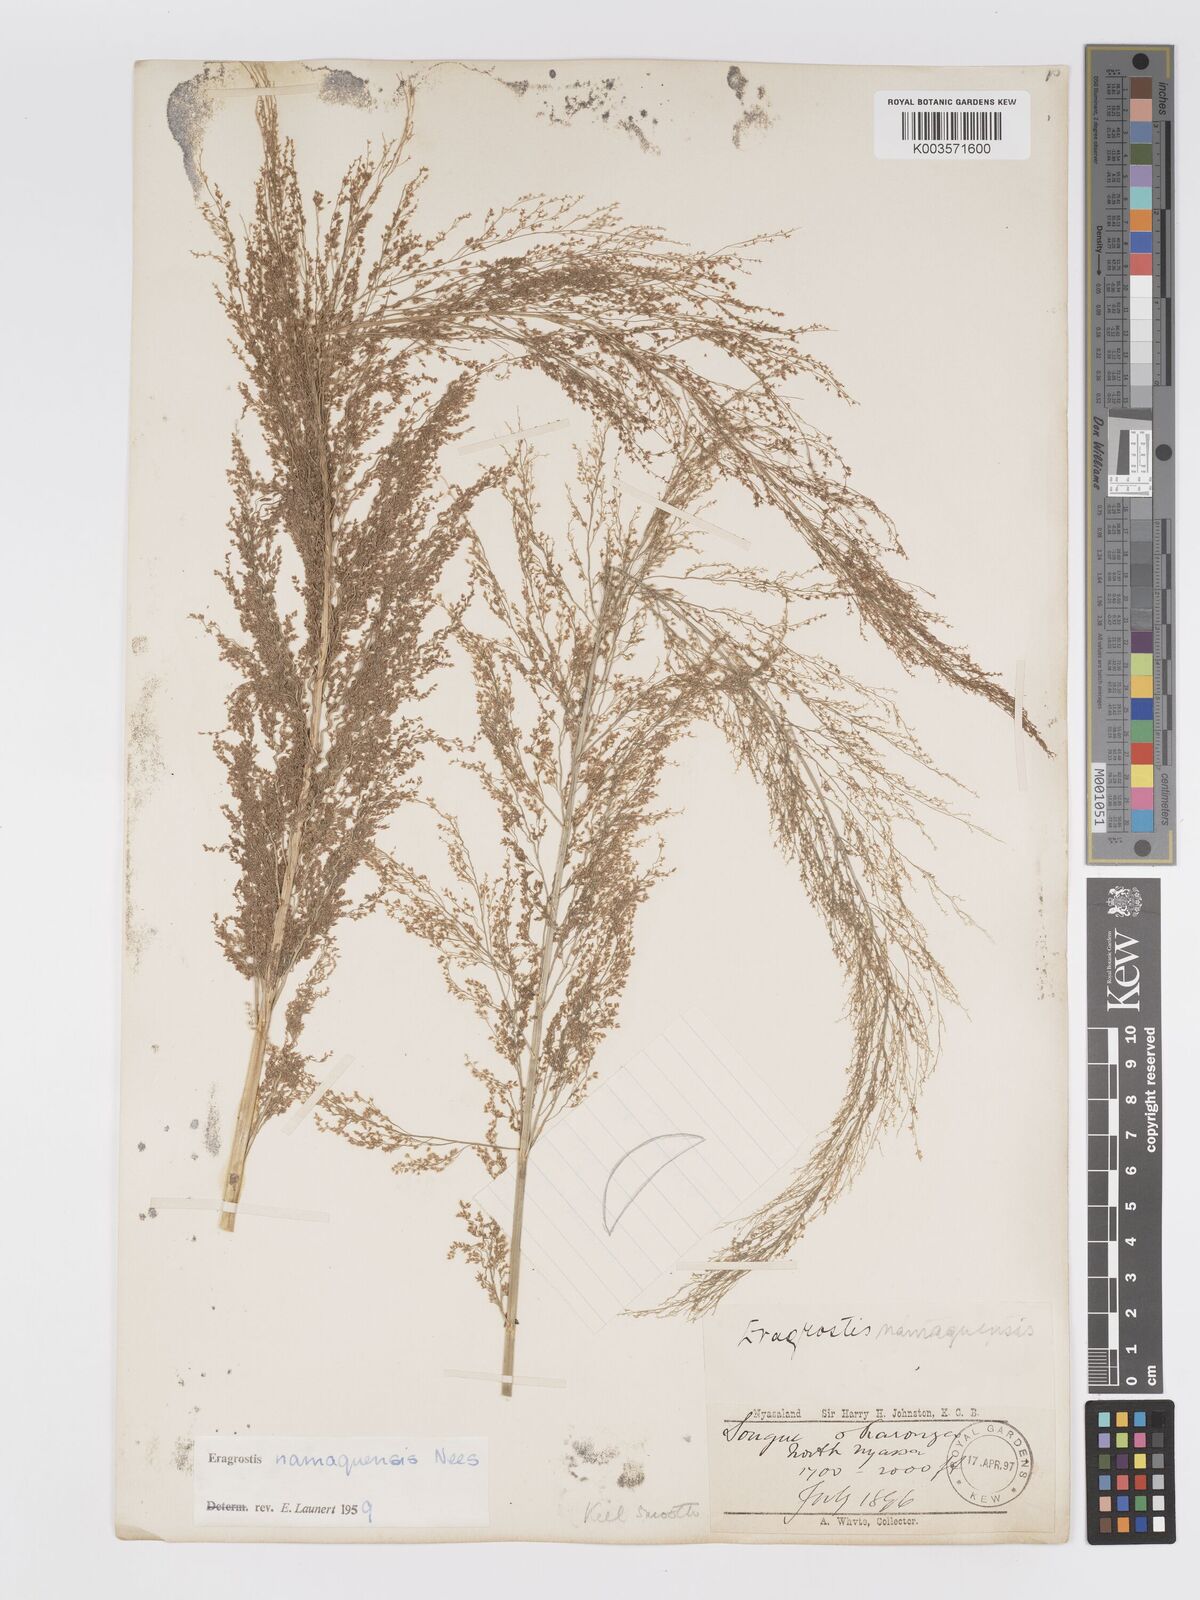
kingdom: Plantae
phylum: Tracheophyta
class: Liliopsida
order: Poales
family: Poaceae
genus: Eragrostis
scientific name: Eragrostis japonica
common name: Pond lovegrass
